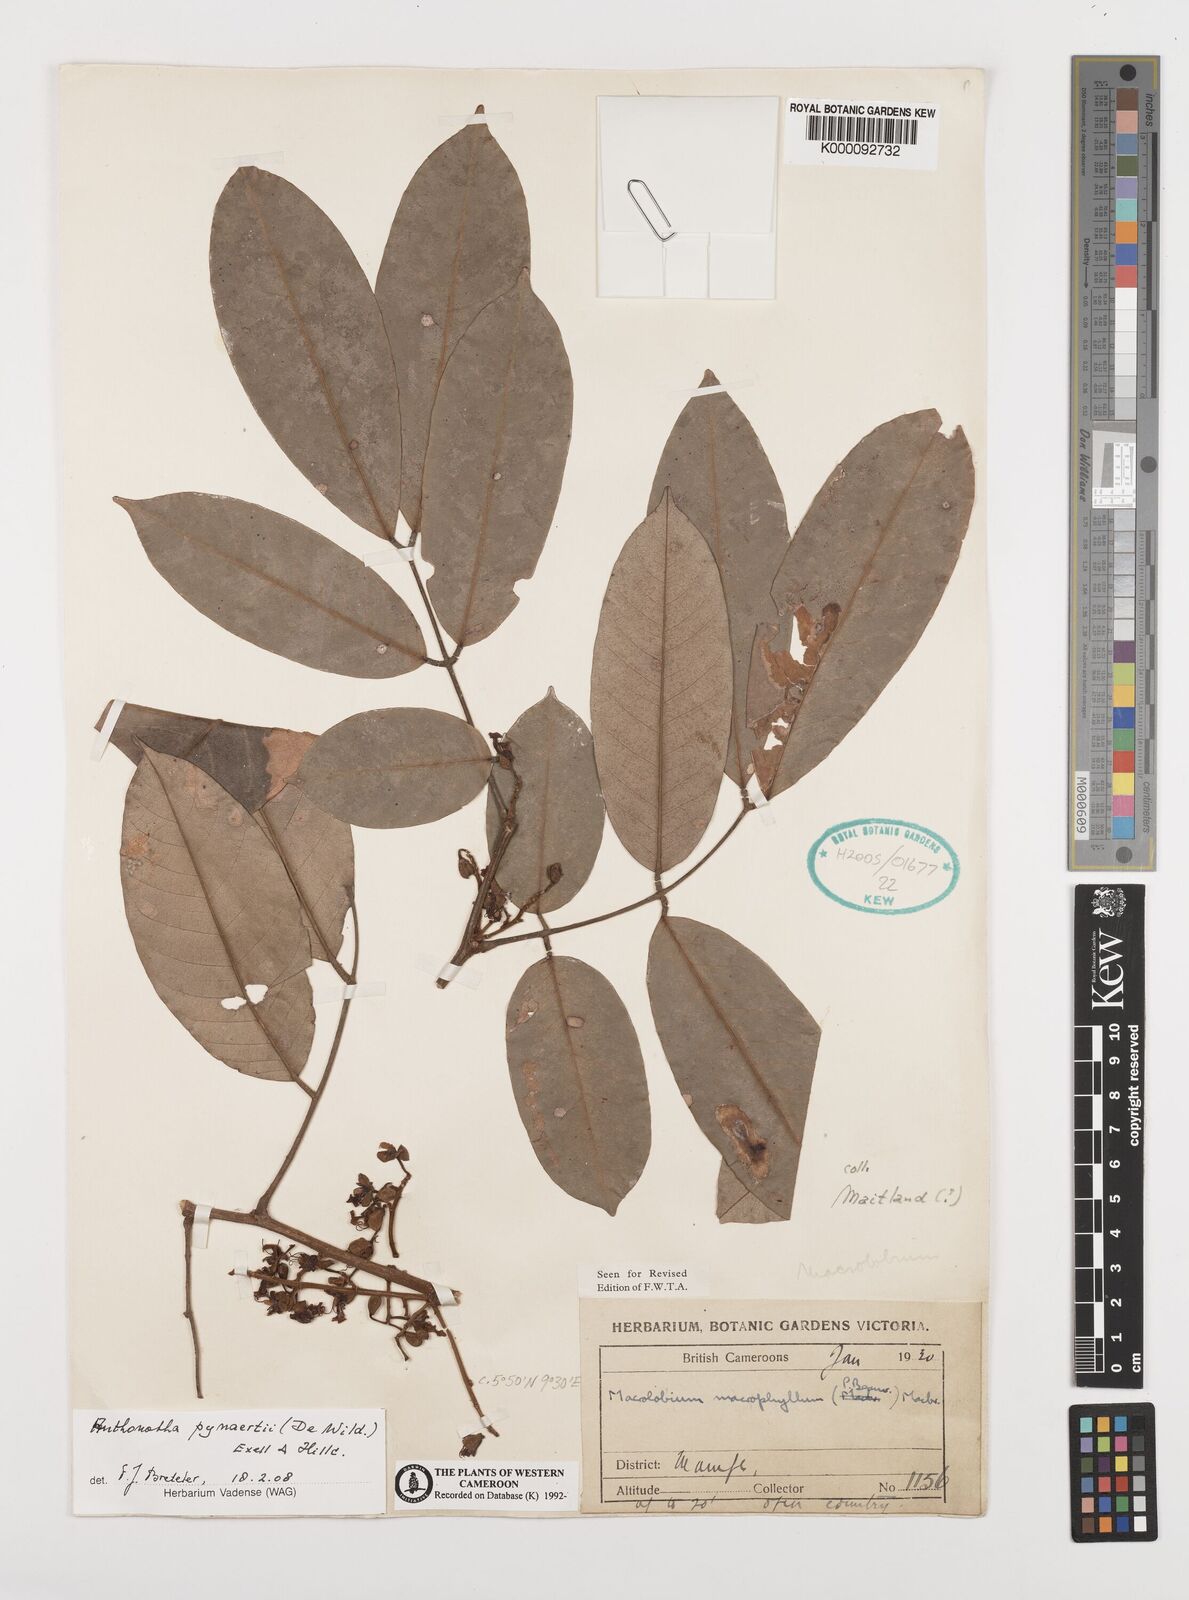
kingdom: Plantae
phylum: Tracheophyta
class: Magnoliopsida
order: Fabales
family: Fabaceae
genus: Anthonotha
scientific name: Anthonotha macrophylla
